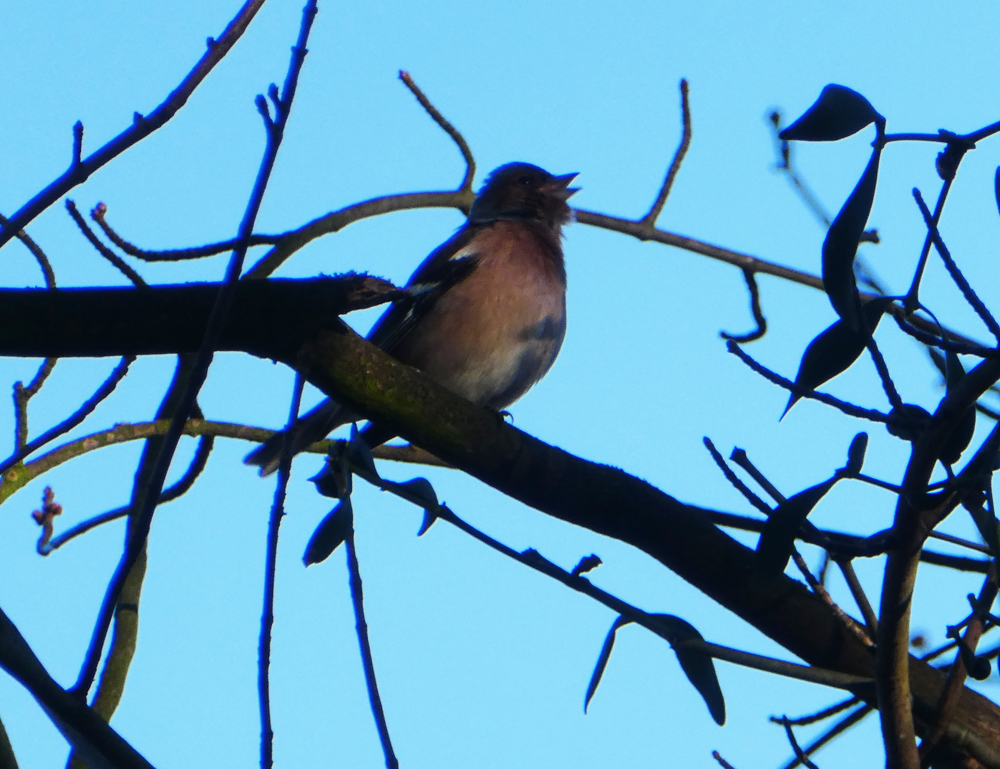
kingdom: Animalia
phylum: Chordata
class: Aves
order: Passeriformes
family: Fringillidae
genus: Fringilla
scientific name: Fringilla coelebs
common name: Common chaffinch
